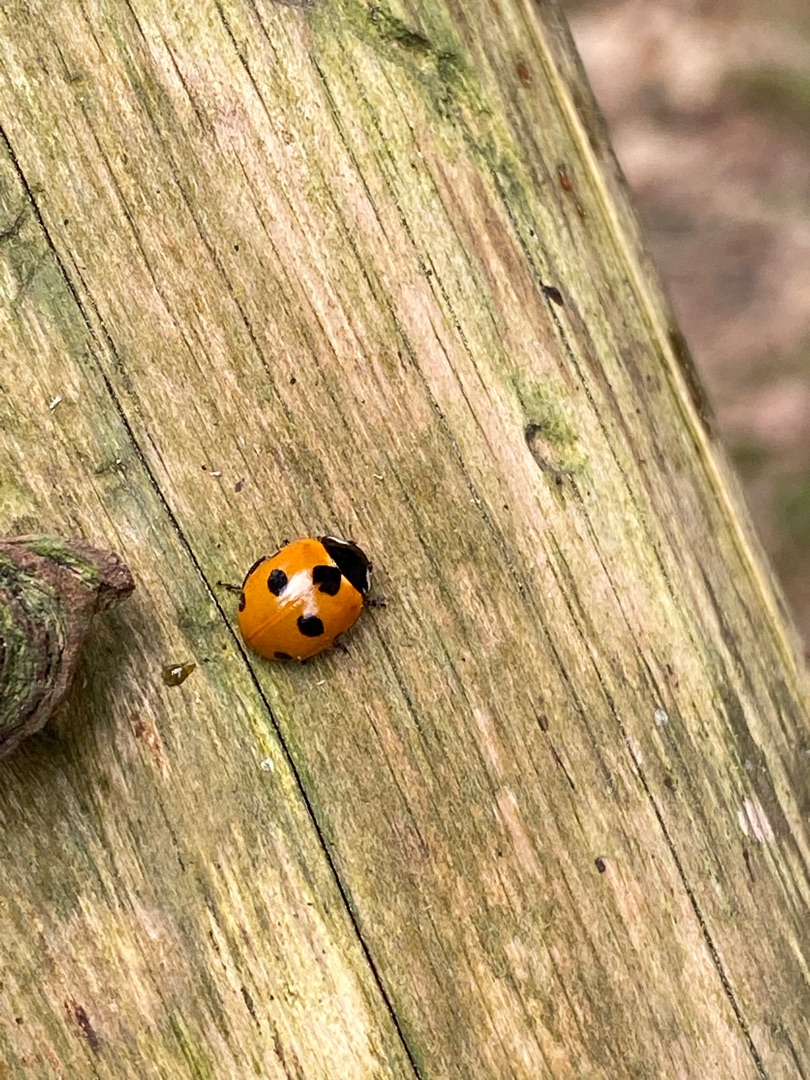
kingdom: Animalia
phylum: Arthropoda
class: Insecta
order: Coleoptera
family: Coccinellidae
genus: Coccinella
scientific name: Coccinella septempunctata
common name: Syvplettet mariehøne
